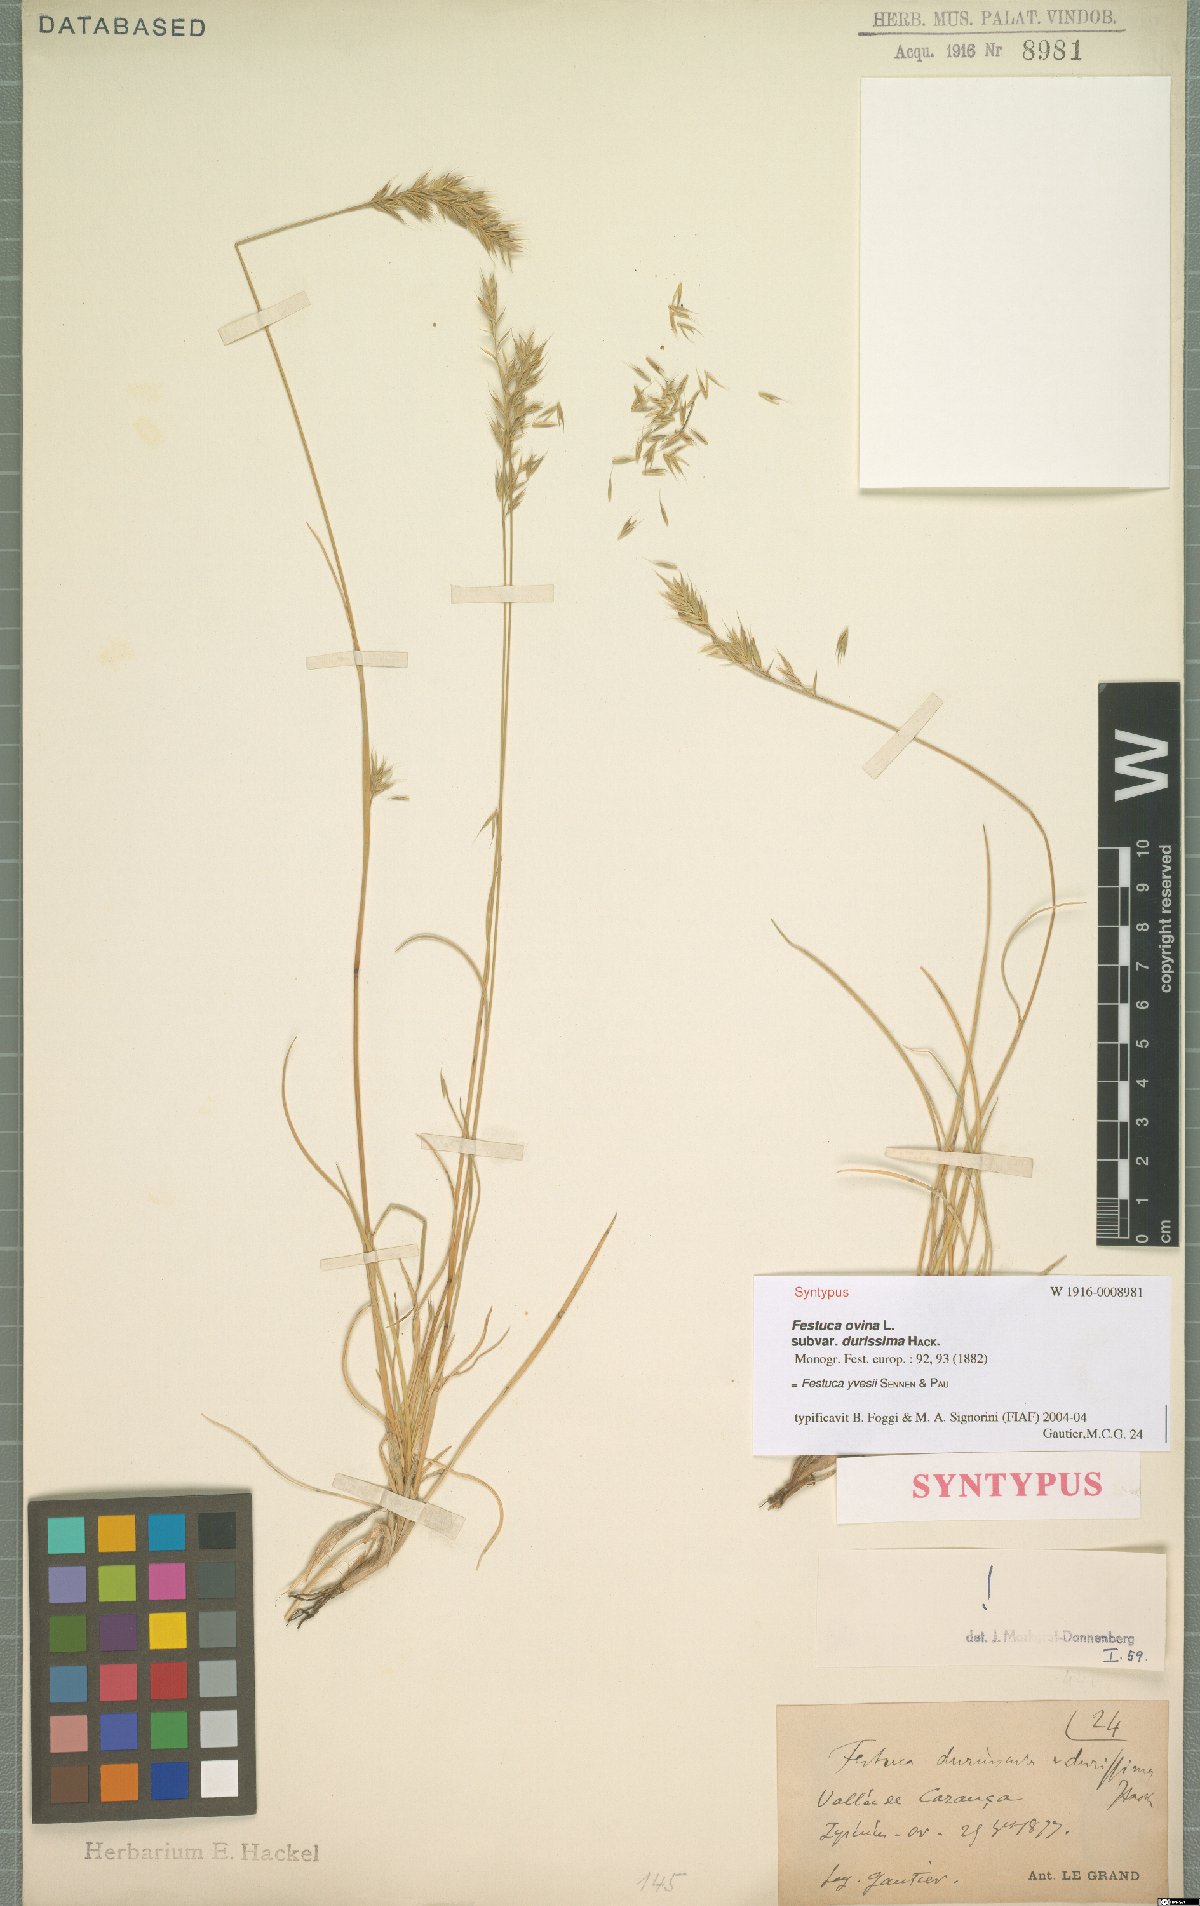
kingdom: Plantae
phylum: Tracheophyta
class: Liliopsida
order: Poales
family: Poaceae
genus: Festuca
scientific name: Festuca durissima
